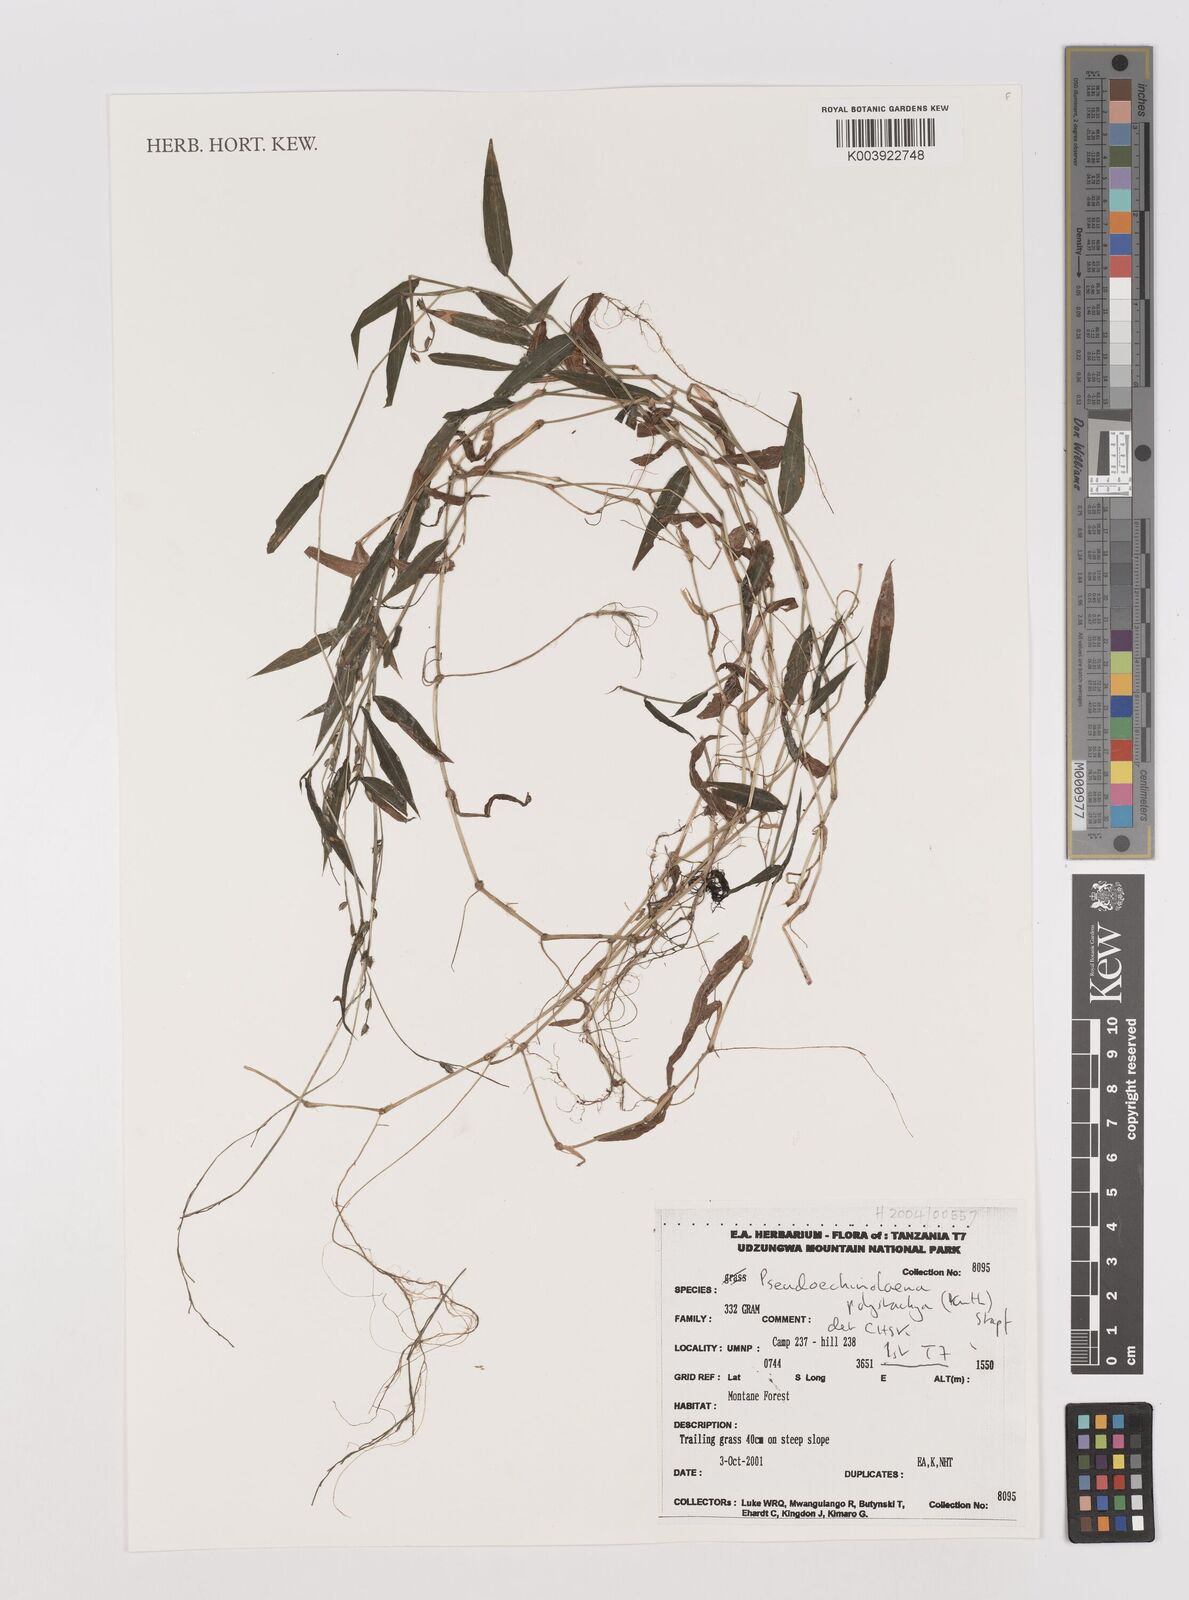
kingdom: Plantae
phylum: Tracheophyta
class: Liliopsida
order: Poales
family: Poaceae
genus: Pseudechinolaena
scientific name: Pseudechinolaena polystachya
